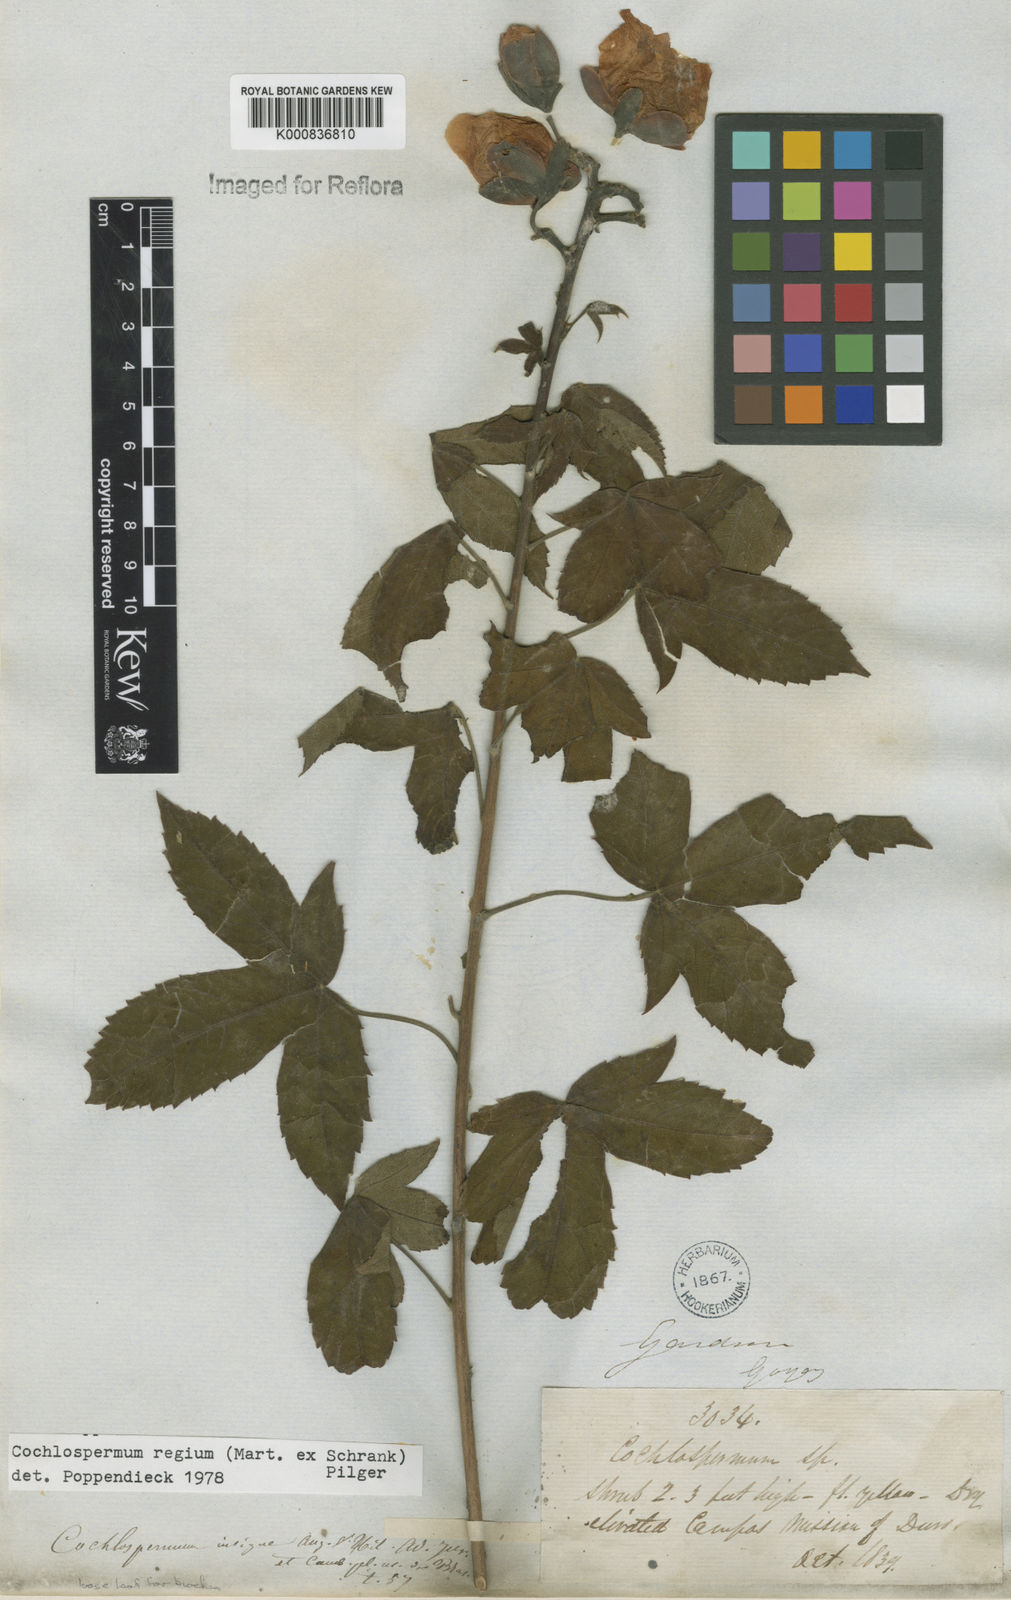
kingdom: Plantae
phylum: Tracheophyta
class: Magnoliopsida
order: Malvales
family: Cochlospermaceae
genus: Cochlospermum
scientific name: Cochlospermum regium
